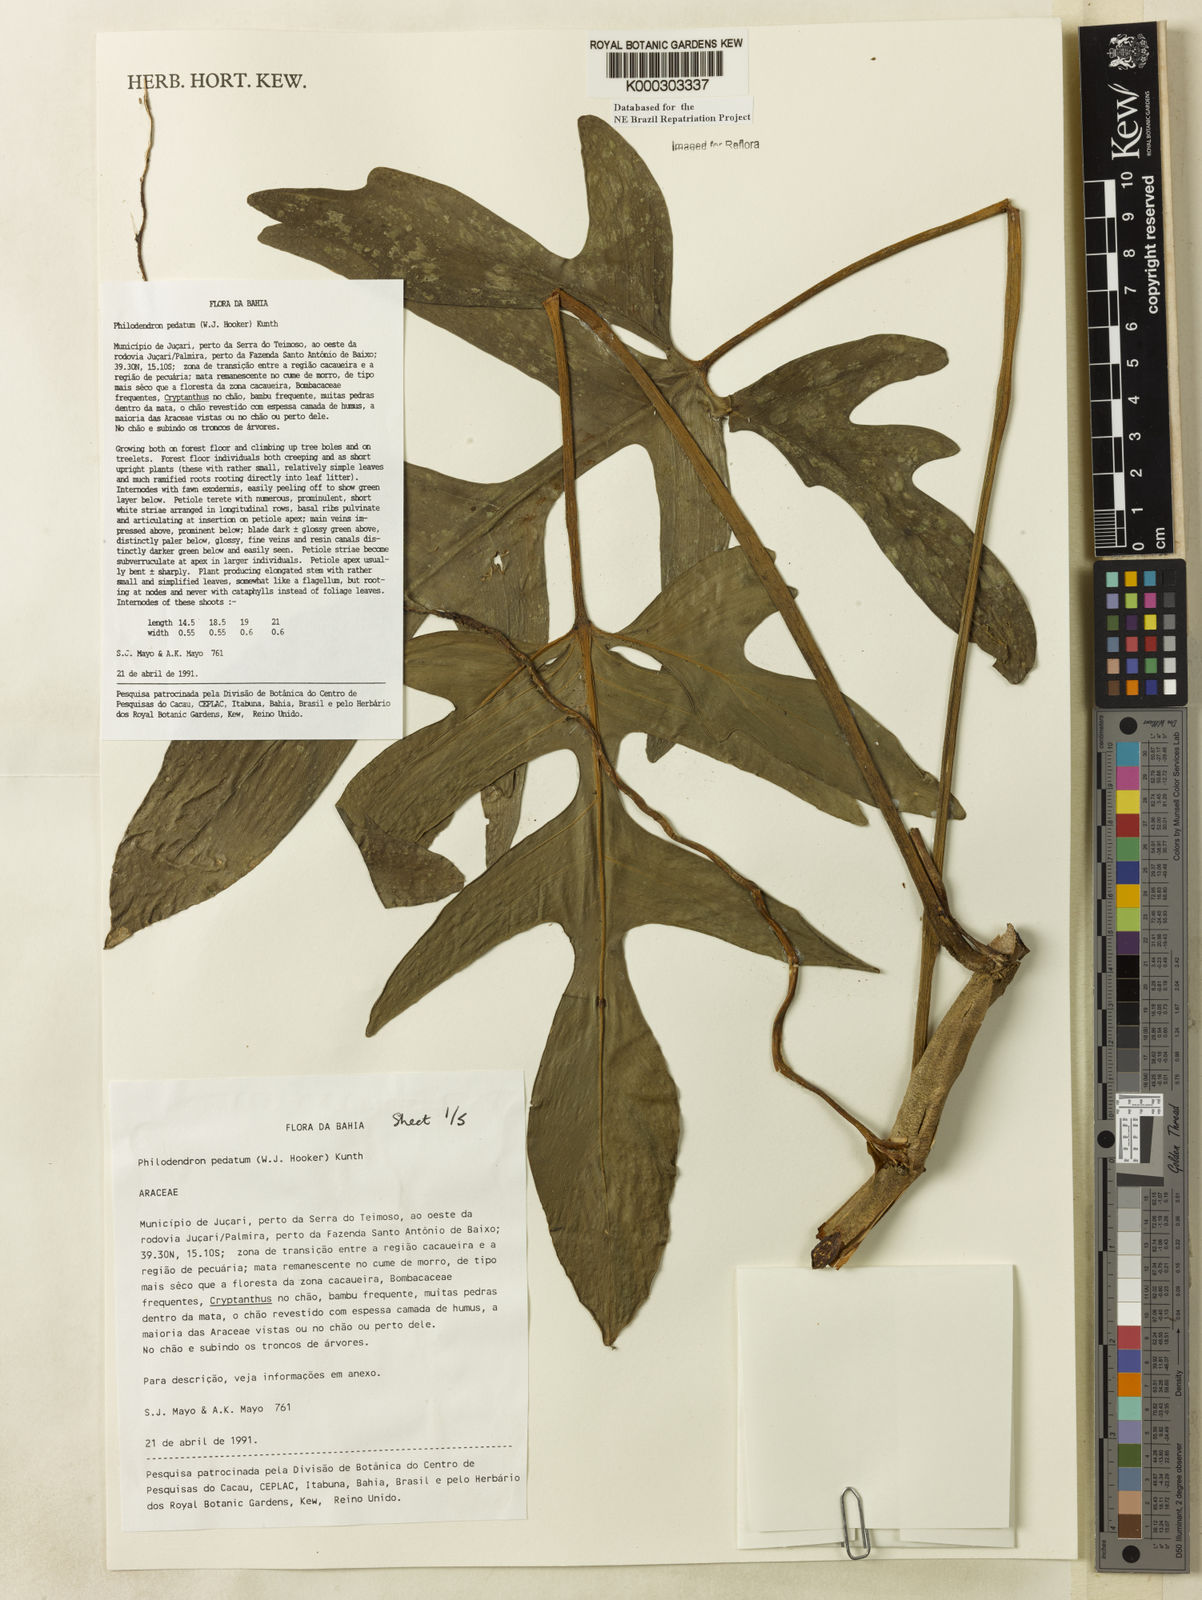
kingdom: Plantae
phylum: Tracheophyta
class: Liliopsida
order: Alismatales
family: Araceae
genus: Philodendron
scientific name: Philodendron pedatum
